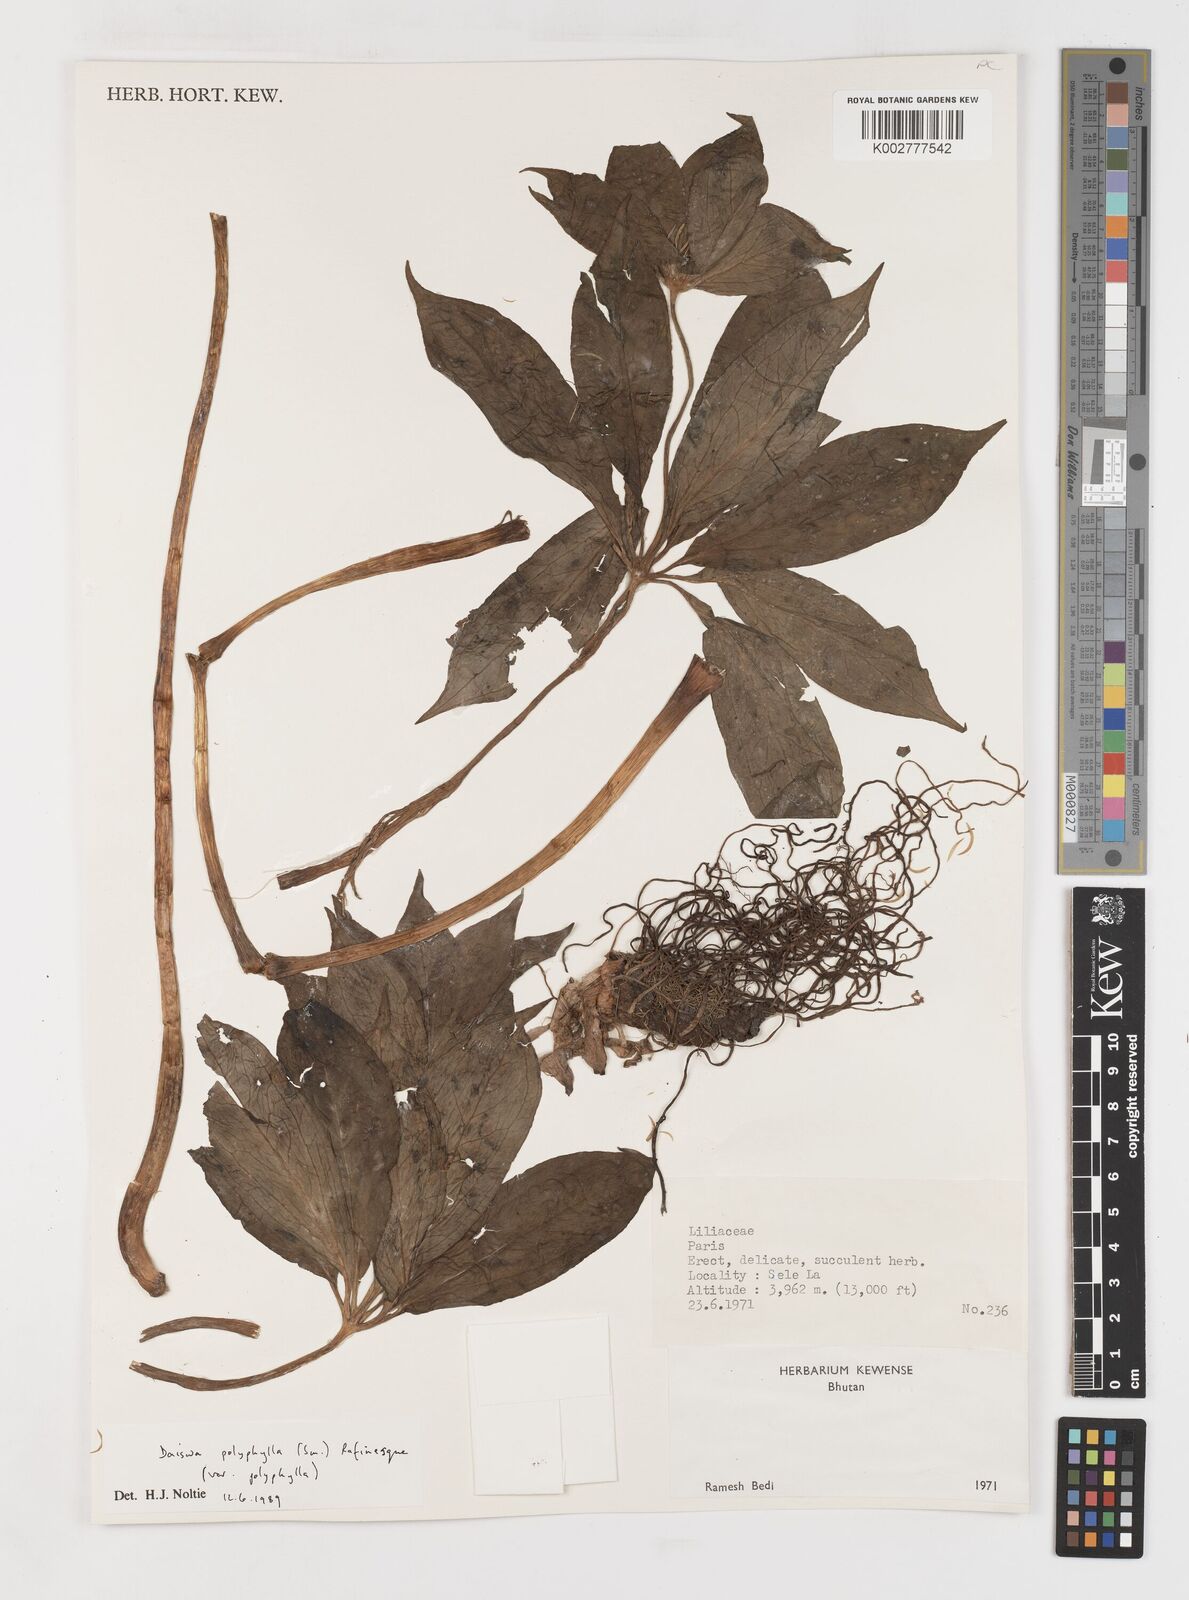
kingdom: Plantae
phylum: Tracheophyta
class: Liliopsida
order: Liliales
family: Melanthiaceae
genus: Paris
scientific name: Paris polyphylla
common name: Love apple
